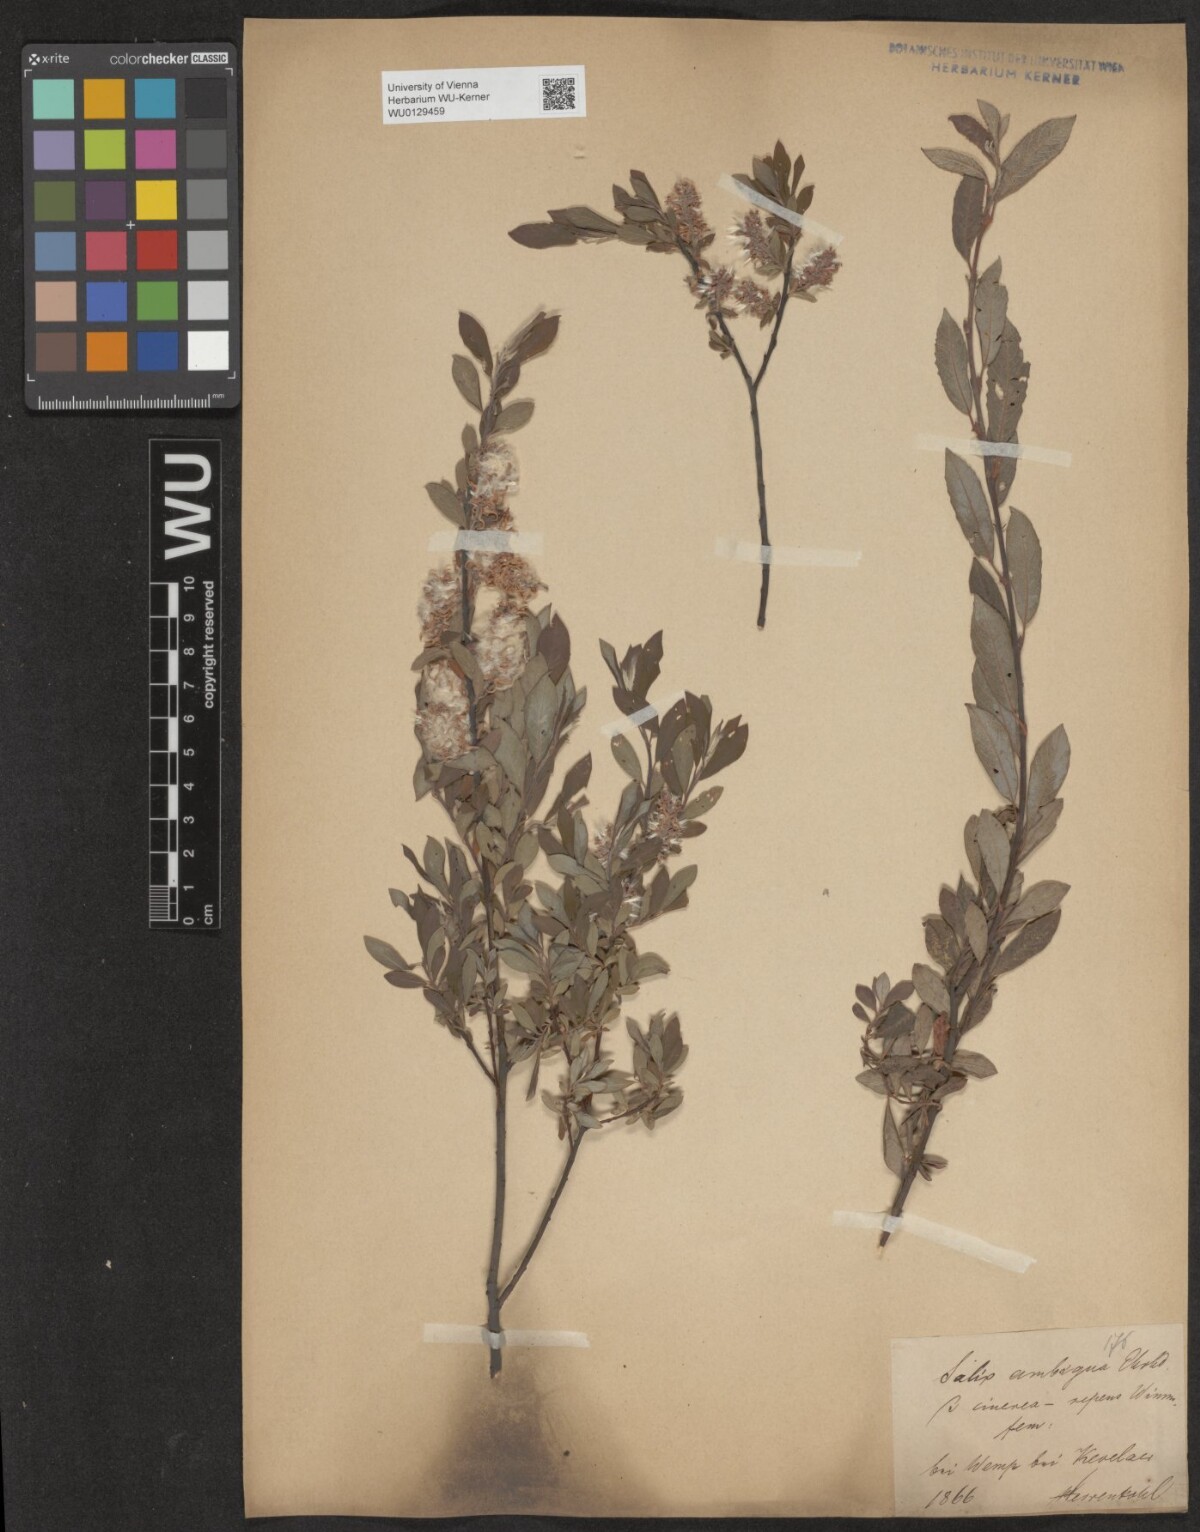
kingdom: Plantae
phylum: Tracheophyta
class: Magnoliopsida
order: Malpighiales
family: Salicaceae
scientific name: Salicaceae
